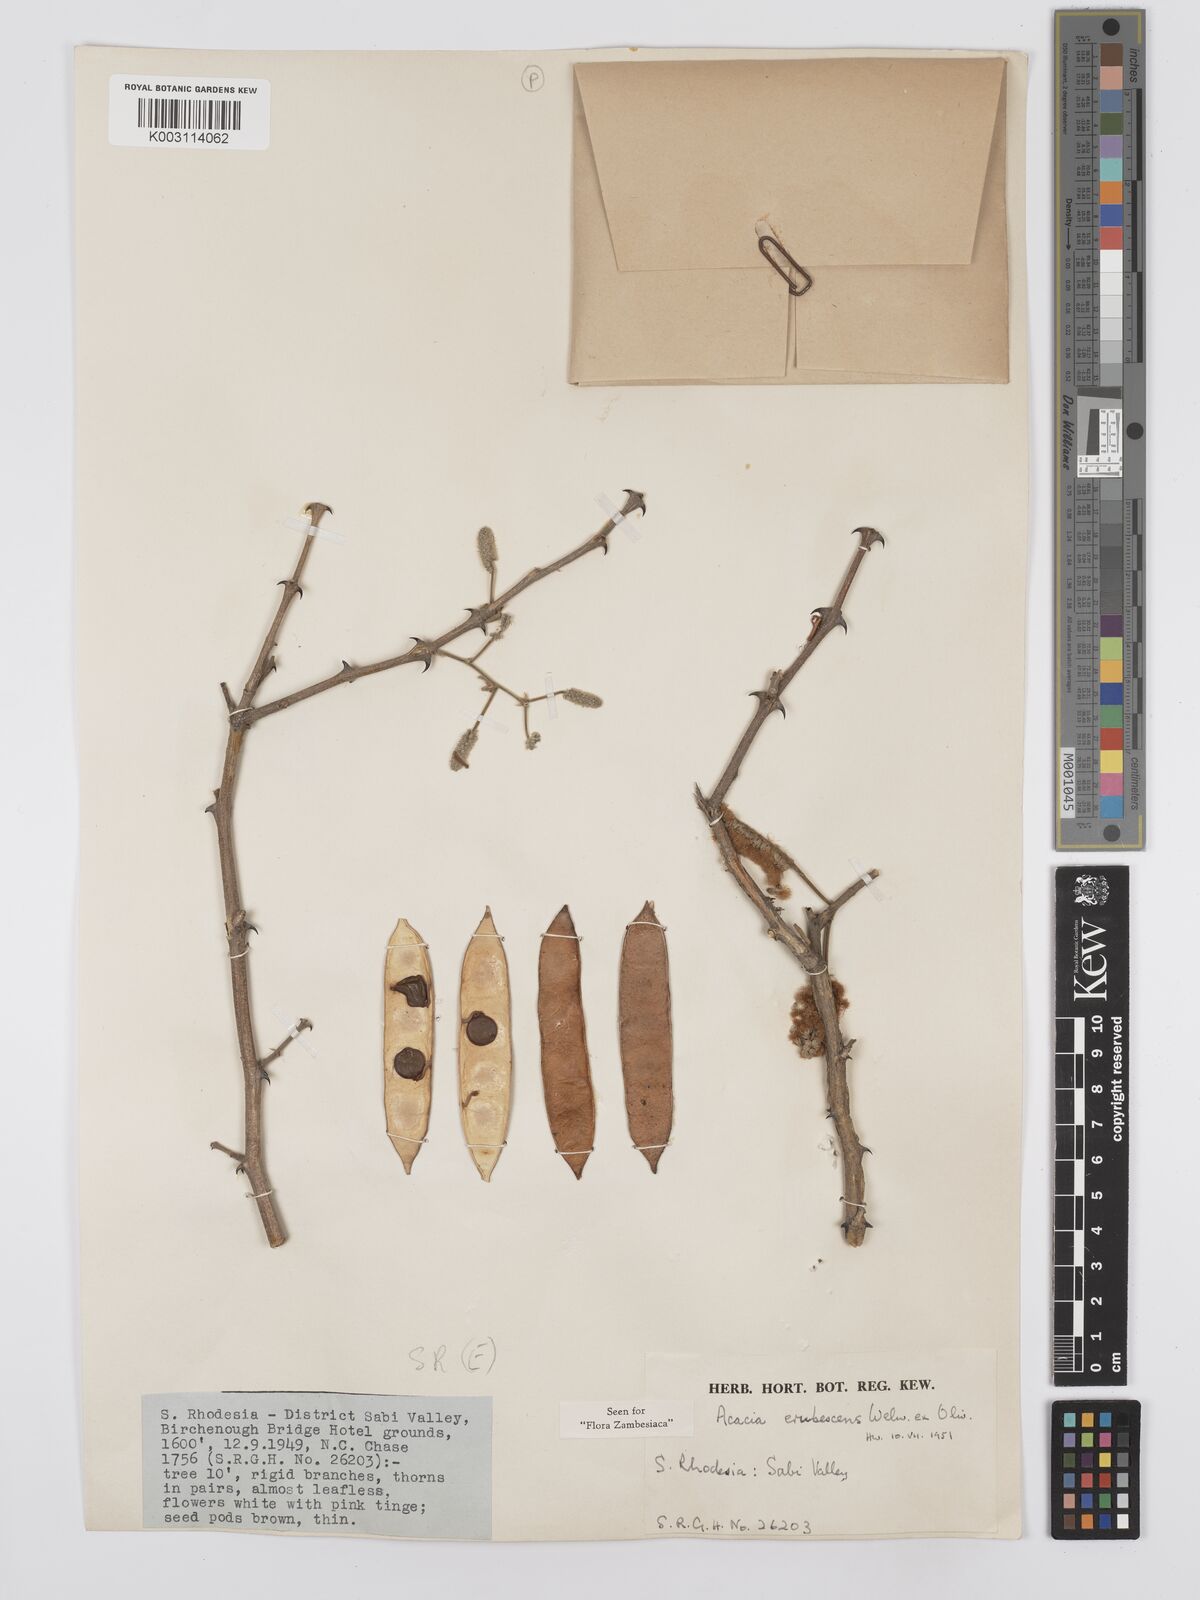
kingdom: Plantae
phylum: Tracheophyta
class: Magnoliopsida
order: Fabales
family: Fabaceae
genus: Senegalia
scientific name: Senegalia erubescens
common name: Bluethorn
